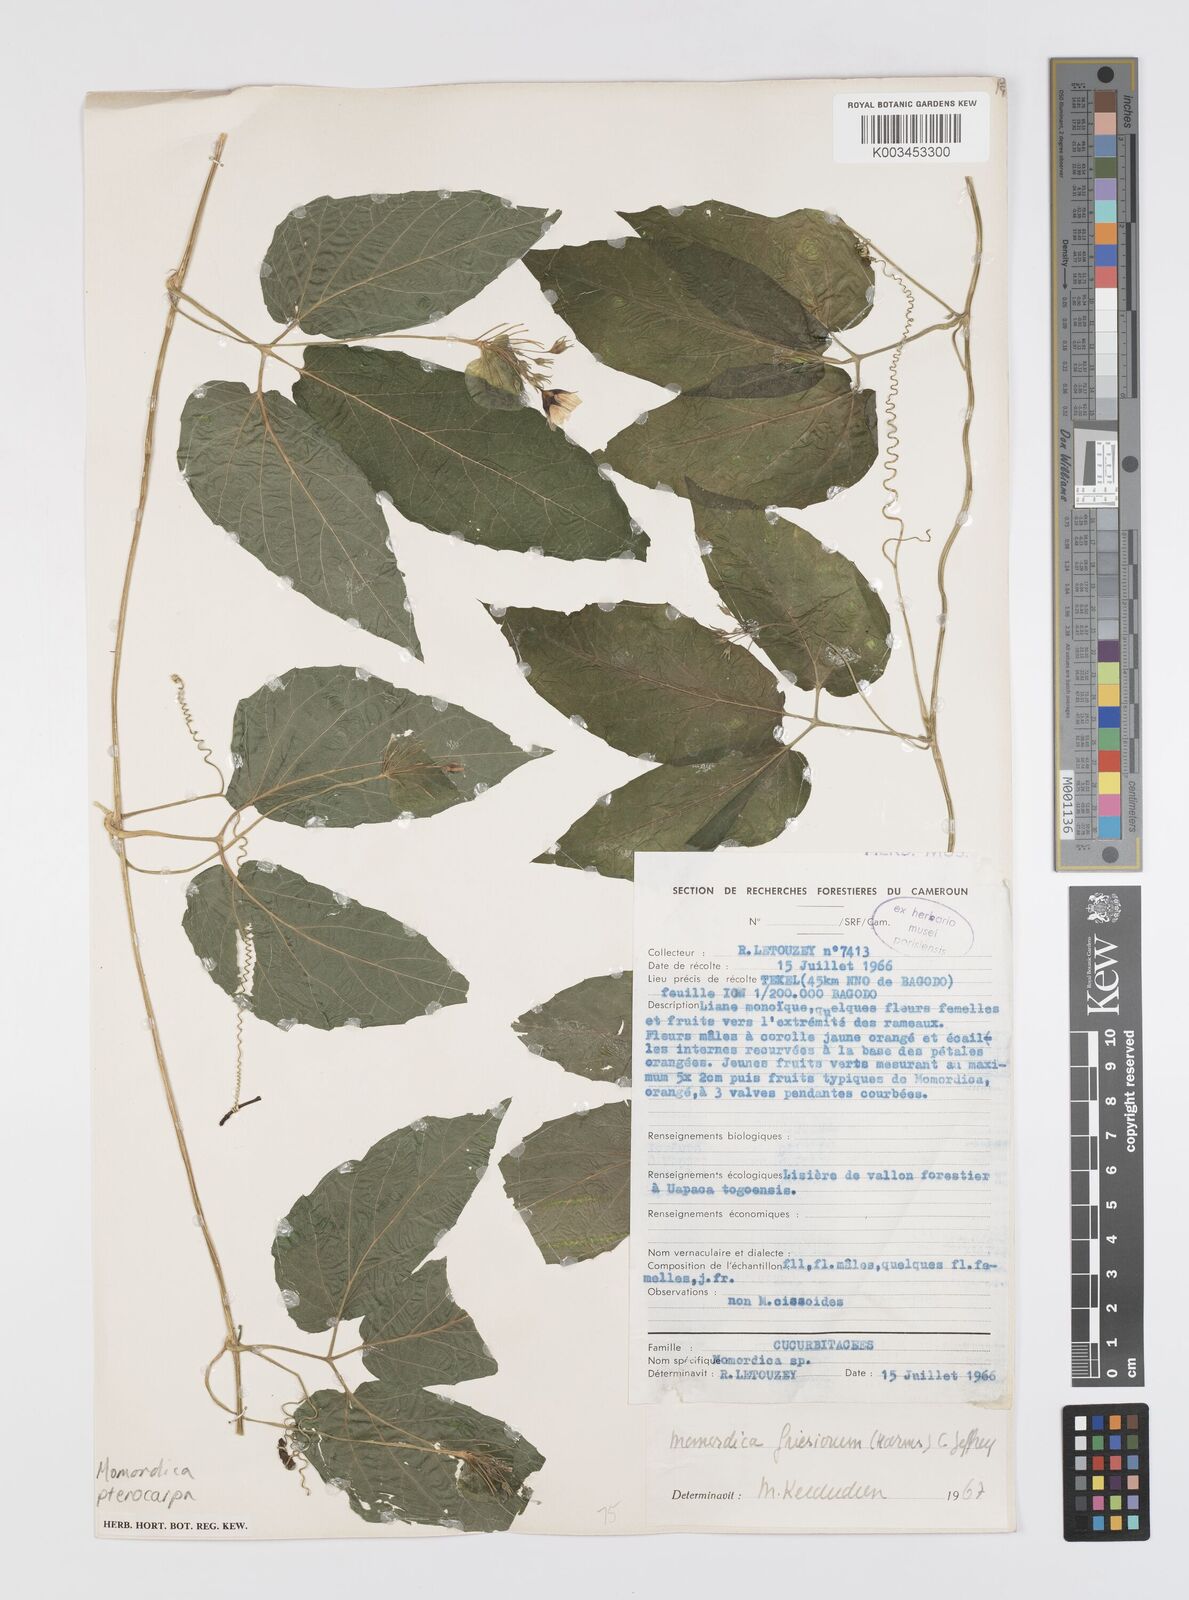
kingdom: Plantae
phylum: Tracheophyta
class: Magnoliopsida
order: Cucurbitales
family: Cucurbitaceae
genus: Momordica
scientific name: Momordica pterocarpa
